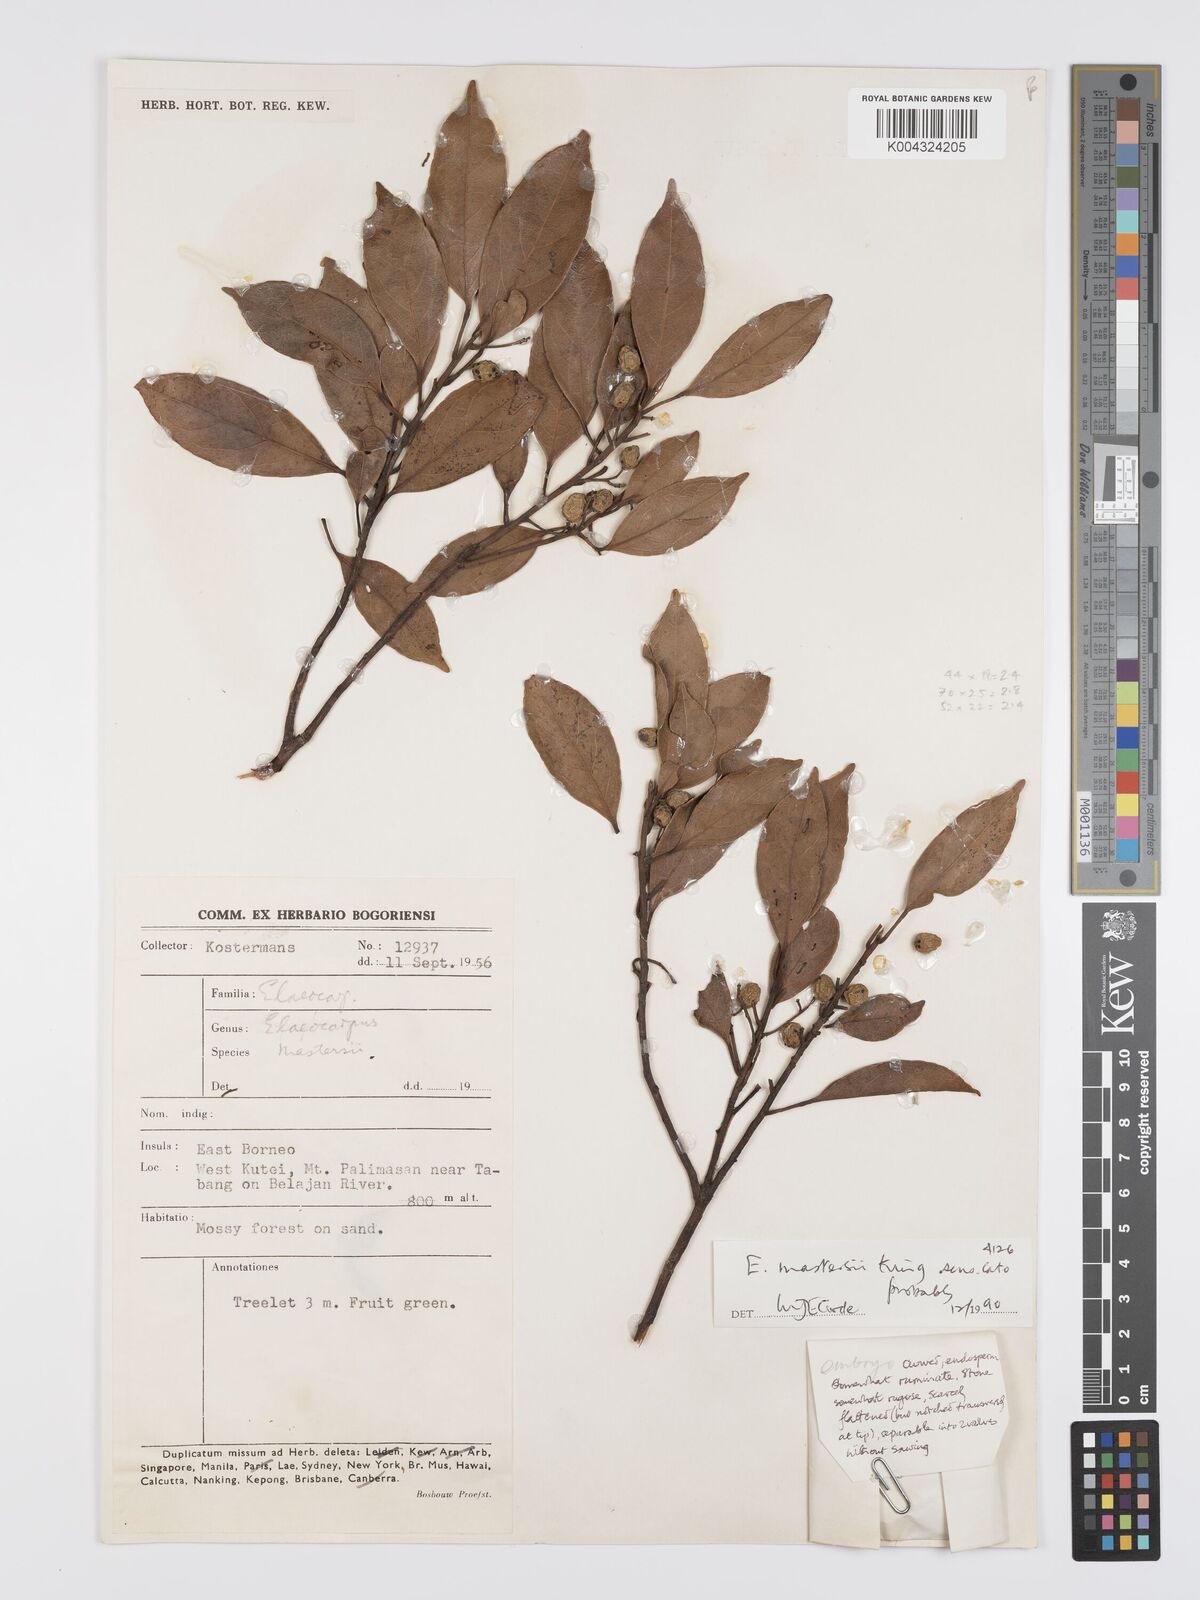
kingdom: Plantae
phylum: Tracheophyta
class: Magnoliopsida
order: Oxalidales
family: Elaeocarpaceae
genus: Elaeocarpus
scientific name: Elaeocarpus mastersii
